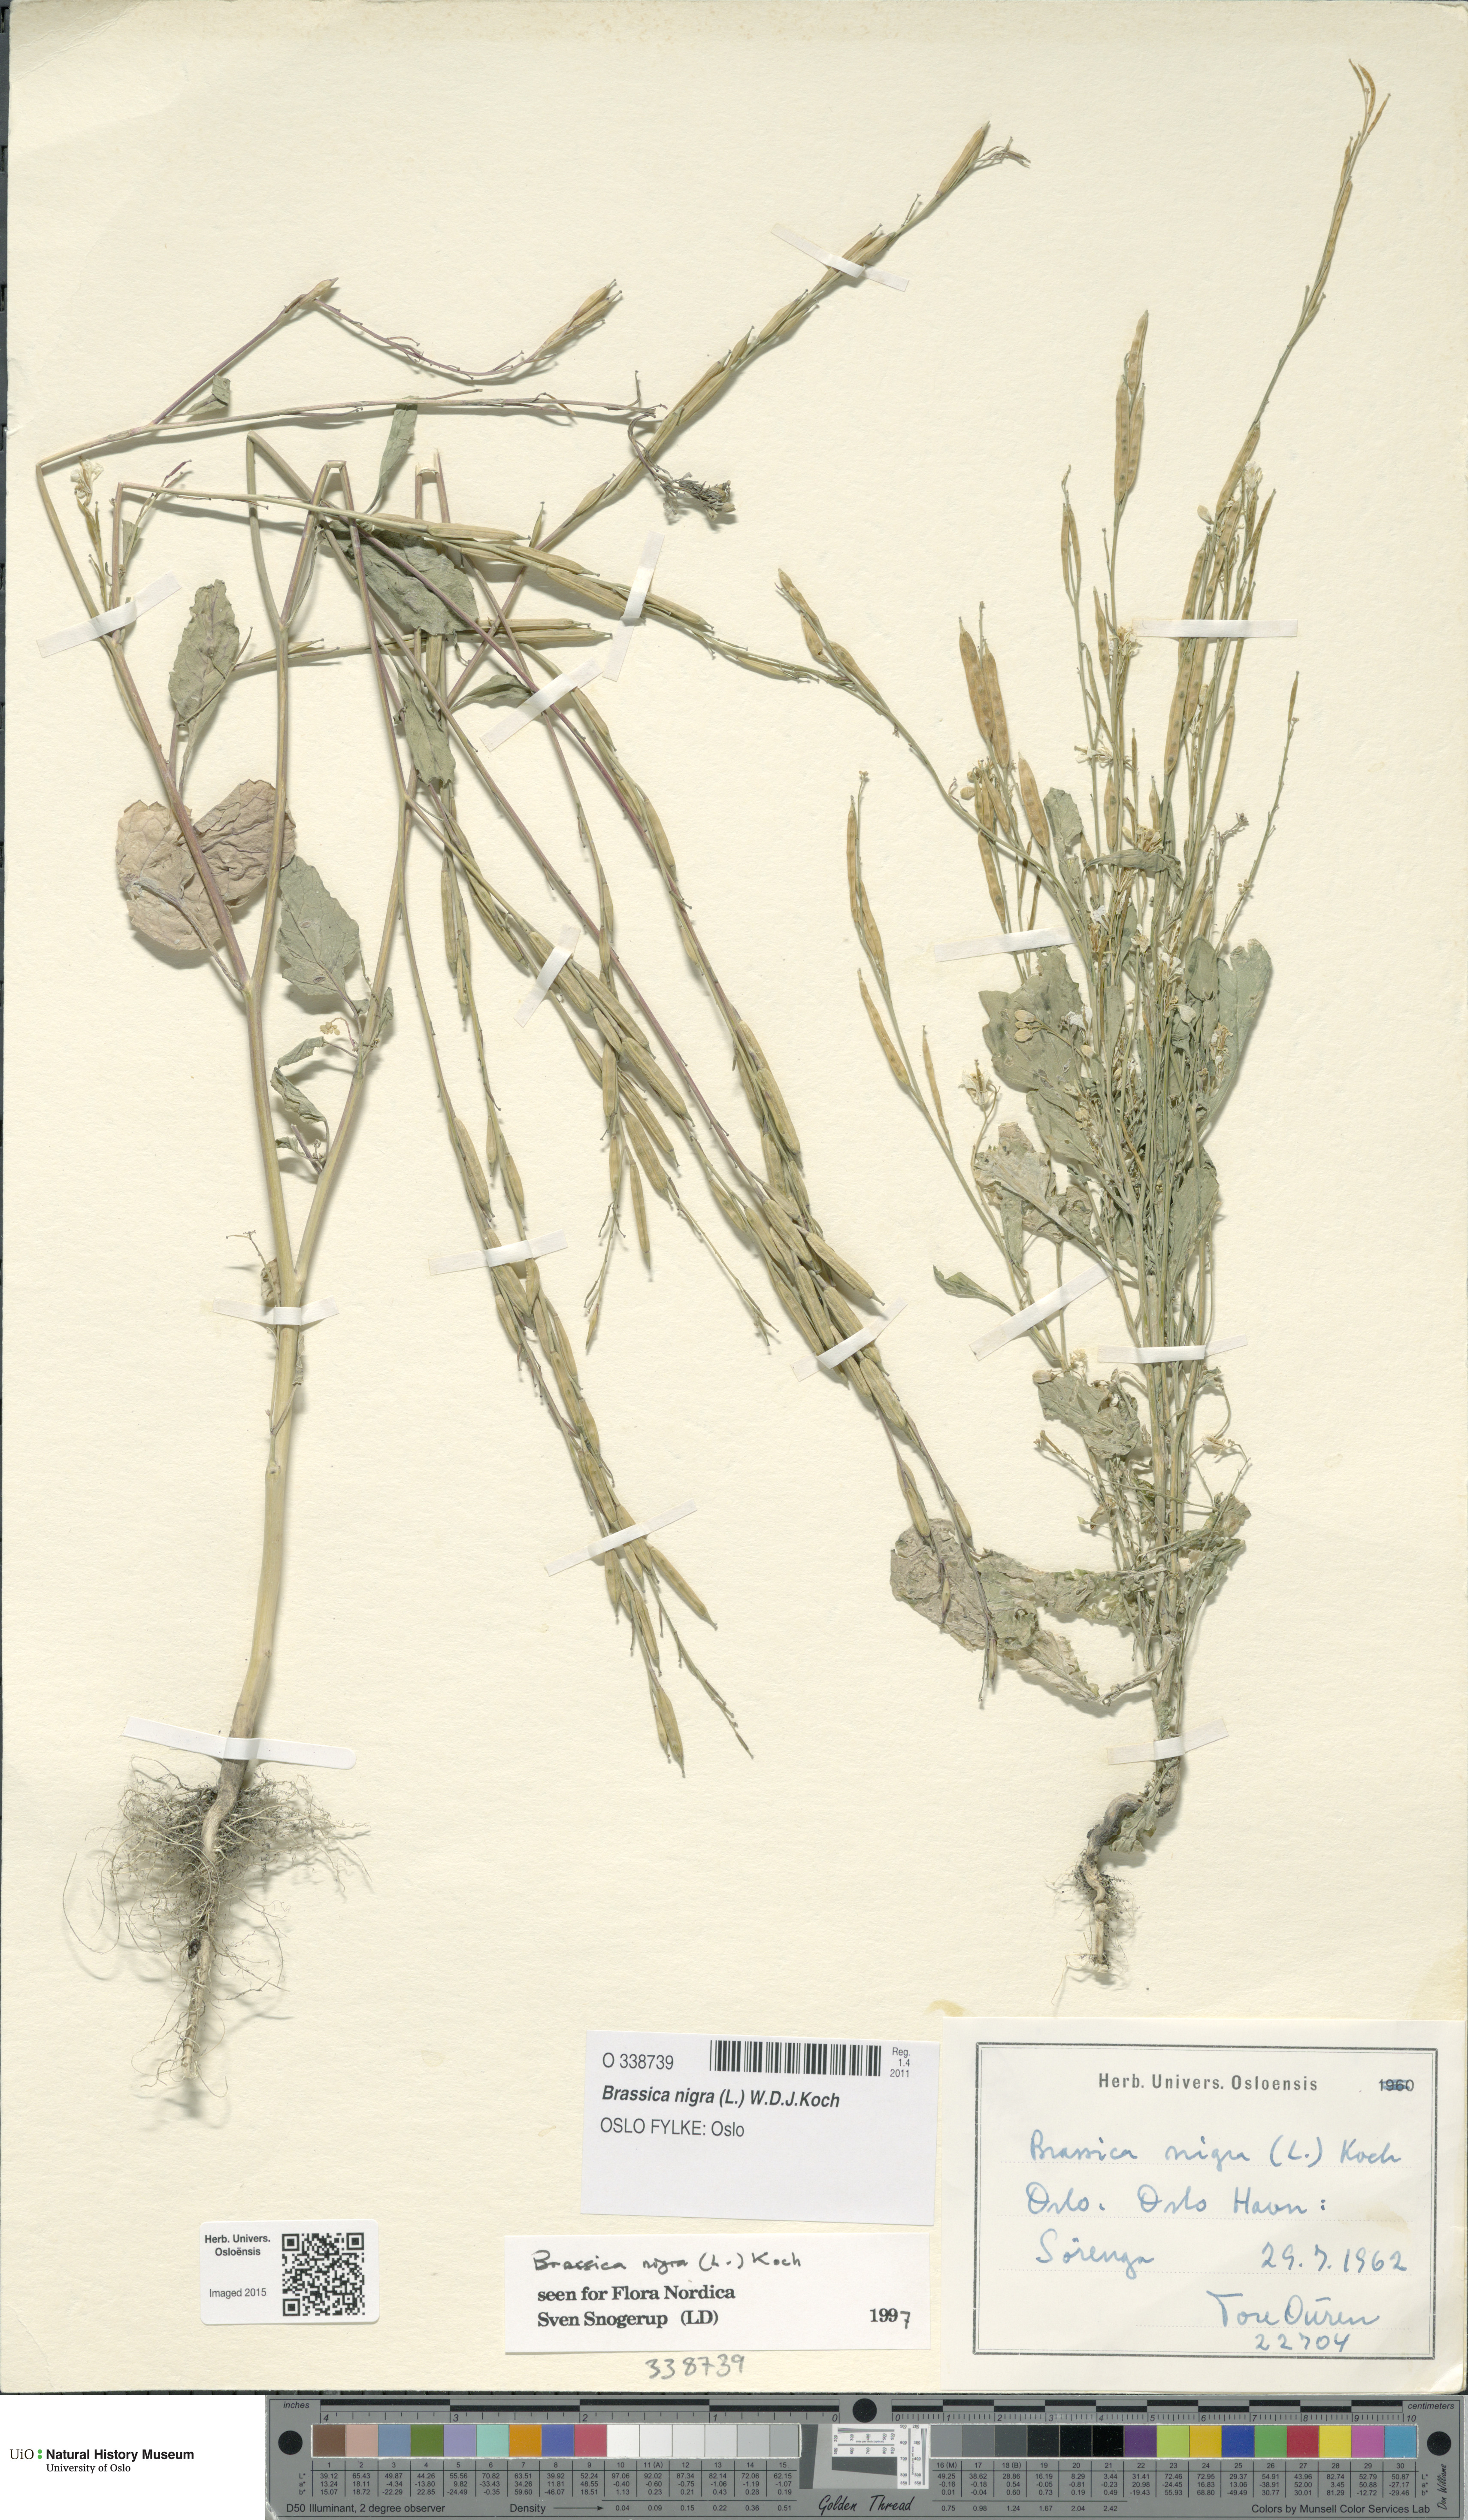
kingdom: Plantae
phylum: Tracheophyta
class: Magnoliopsida
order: Brassicales
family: Brassicaceae
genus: Brassica
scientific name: Brassica nigra
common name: Black mustard
